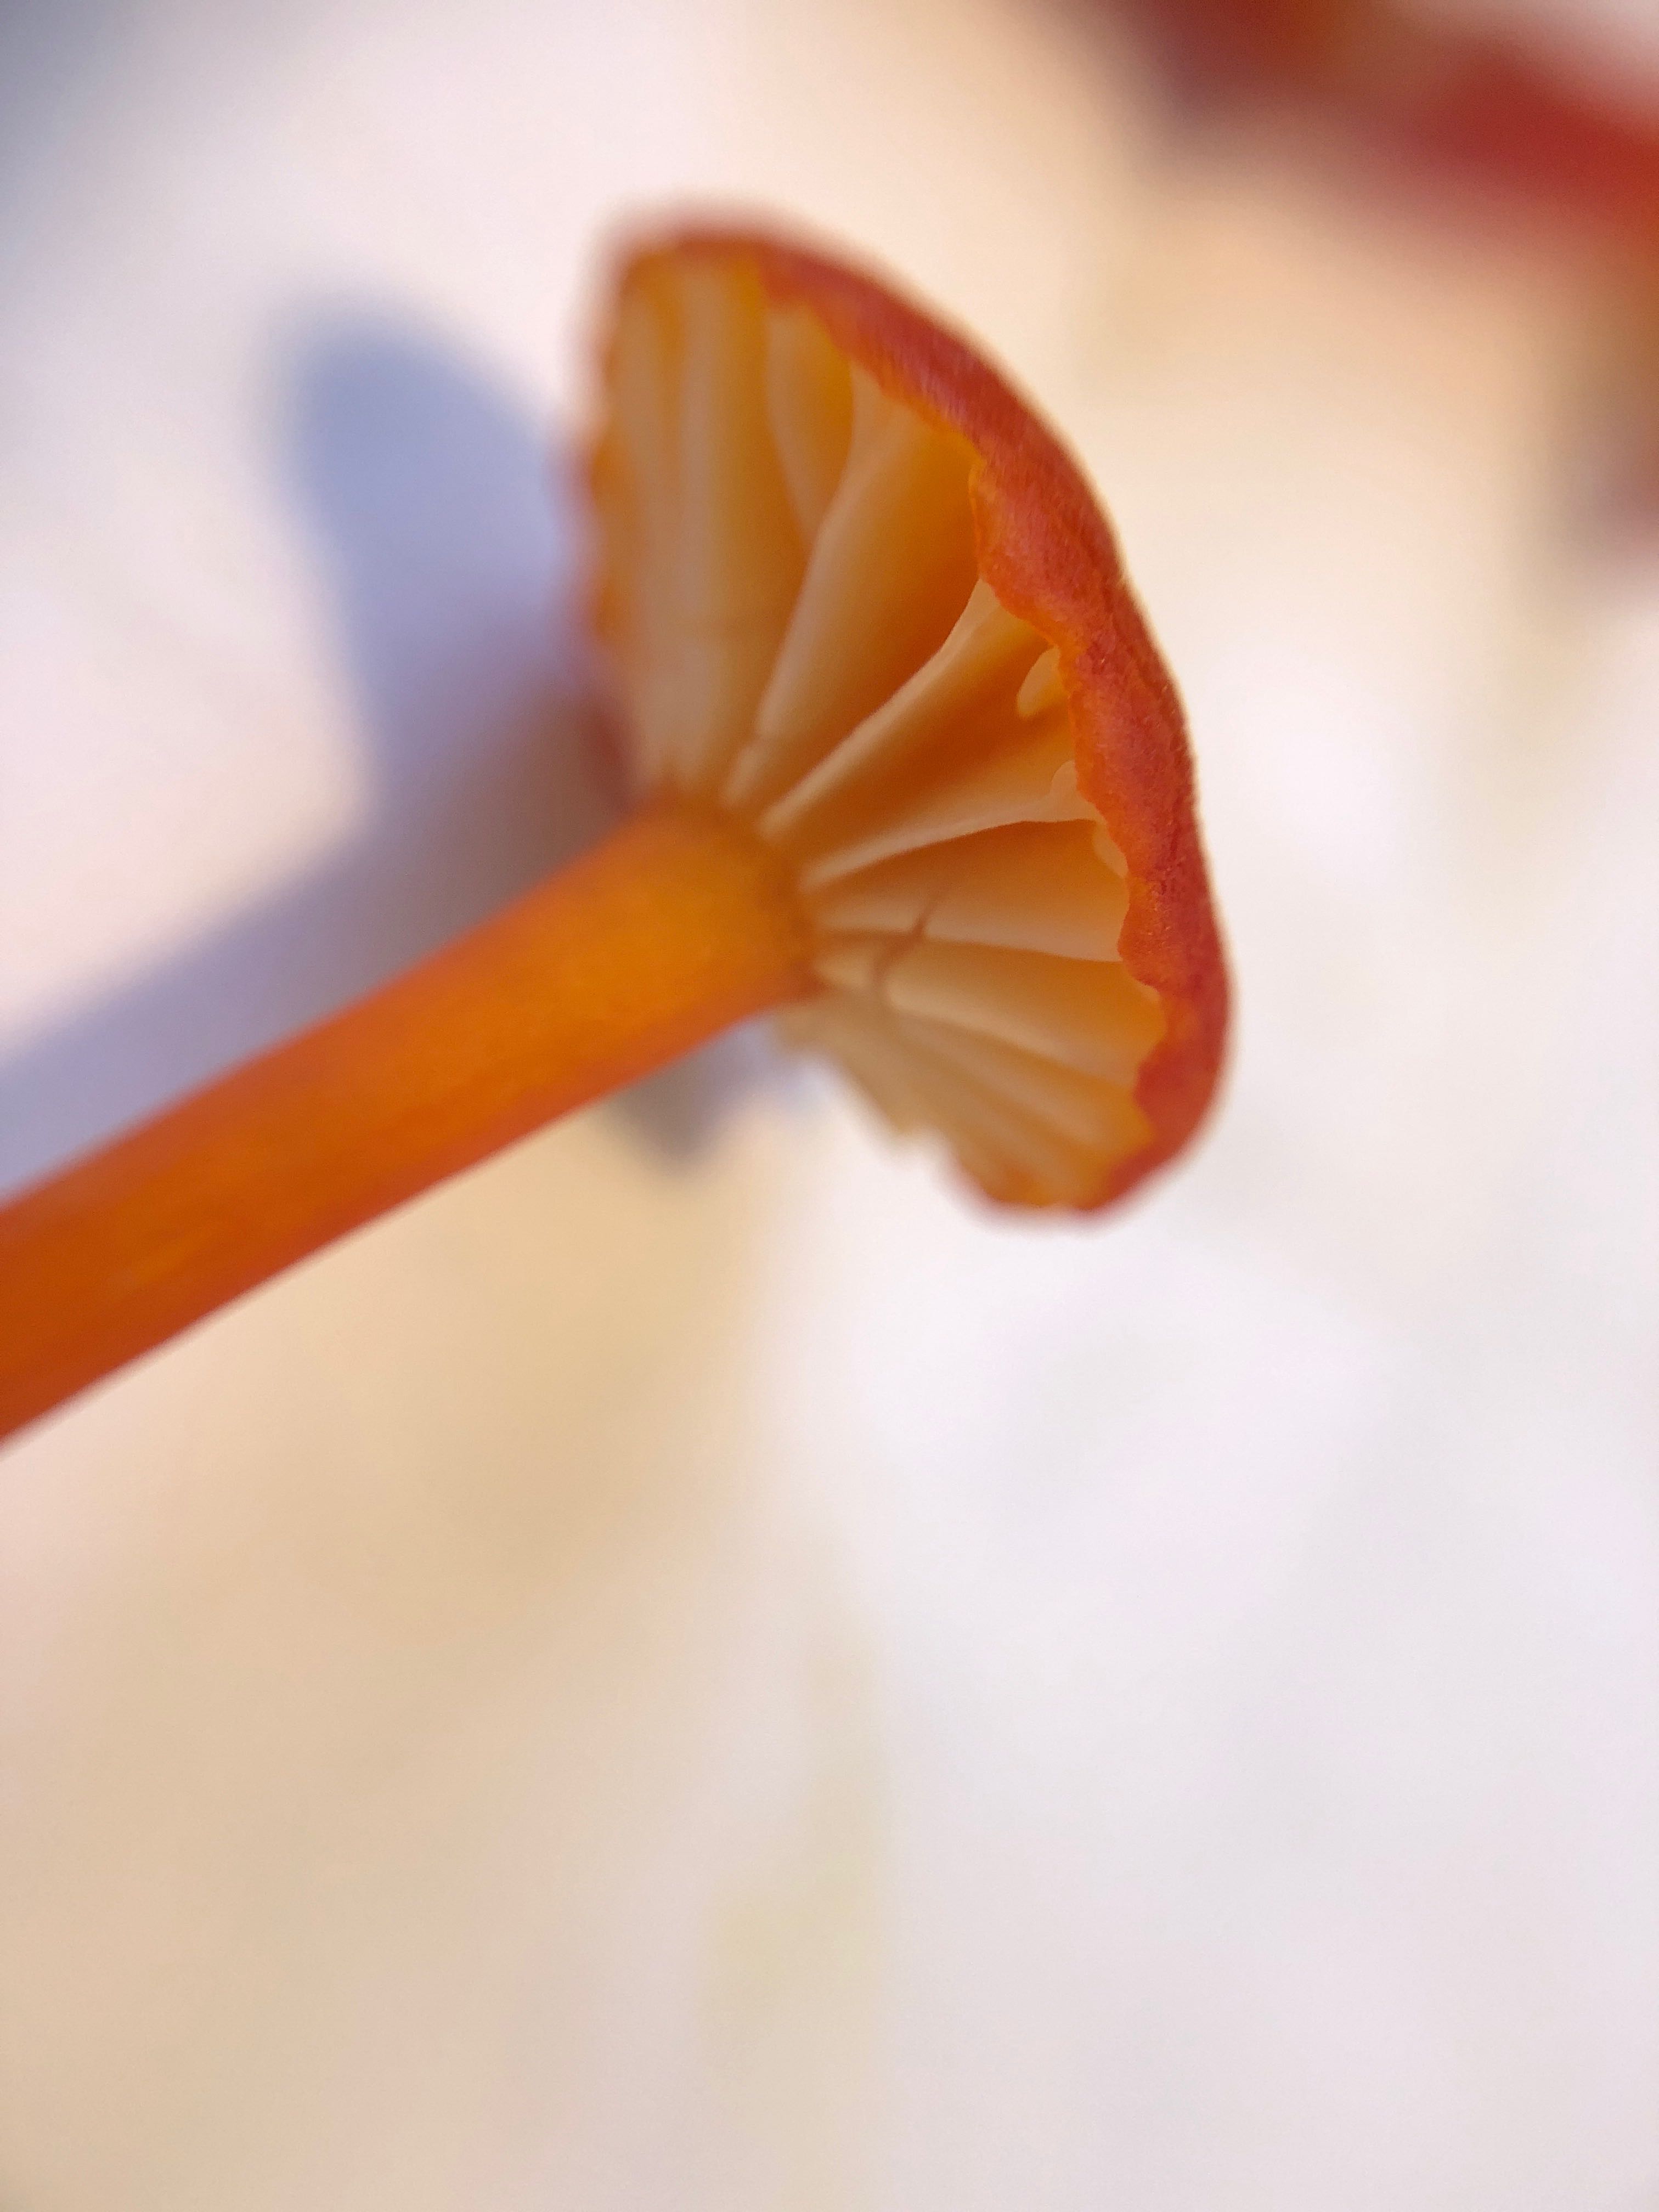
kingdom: Fungi
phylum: Basidiomycota
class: Agaricomycetes
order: Agaricales
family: Hygrophoraceae
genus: Hygrocybe
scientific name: Hygrocybe
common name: vokshat
